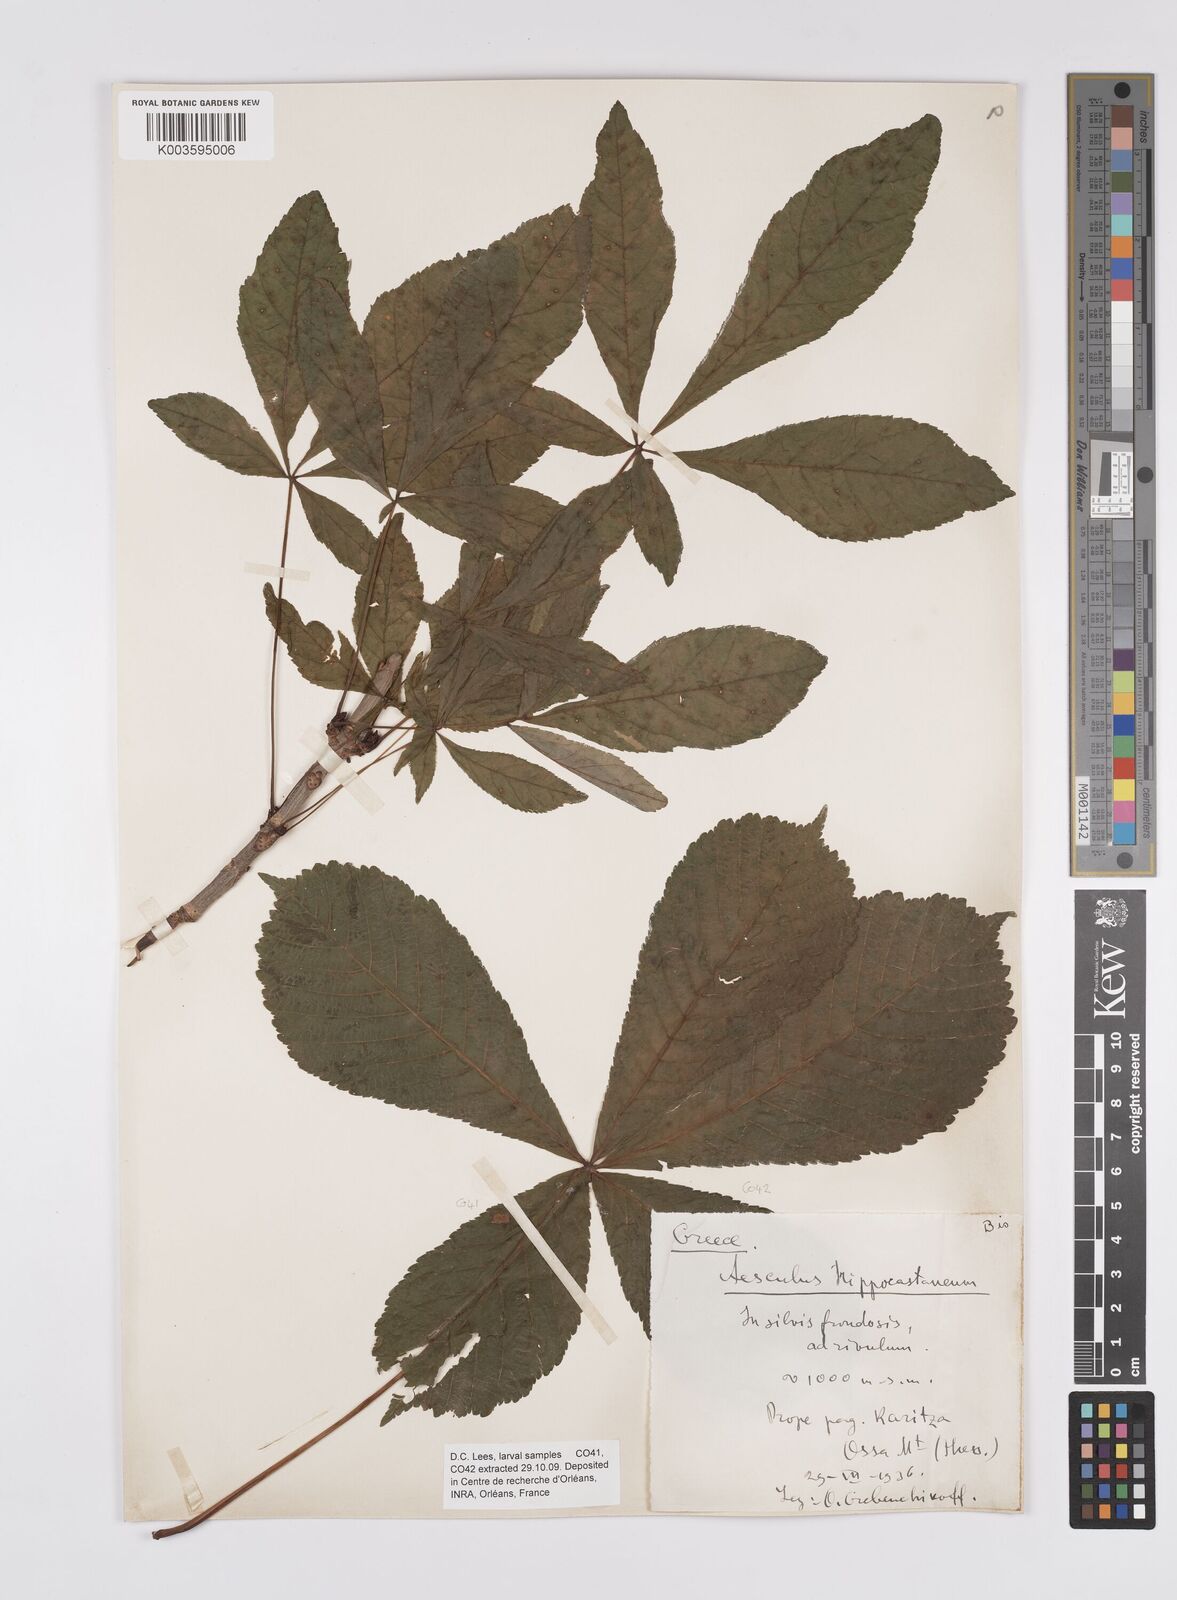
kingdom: Plantae
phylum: Tracheophyta
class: Magnoliopsida
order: Sapindales
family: Sapindaceae
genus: Aesculus
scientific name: Aesculus hippocastanum
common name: Horse-chestnut
